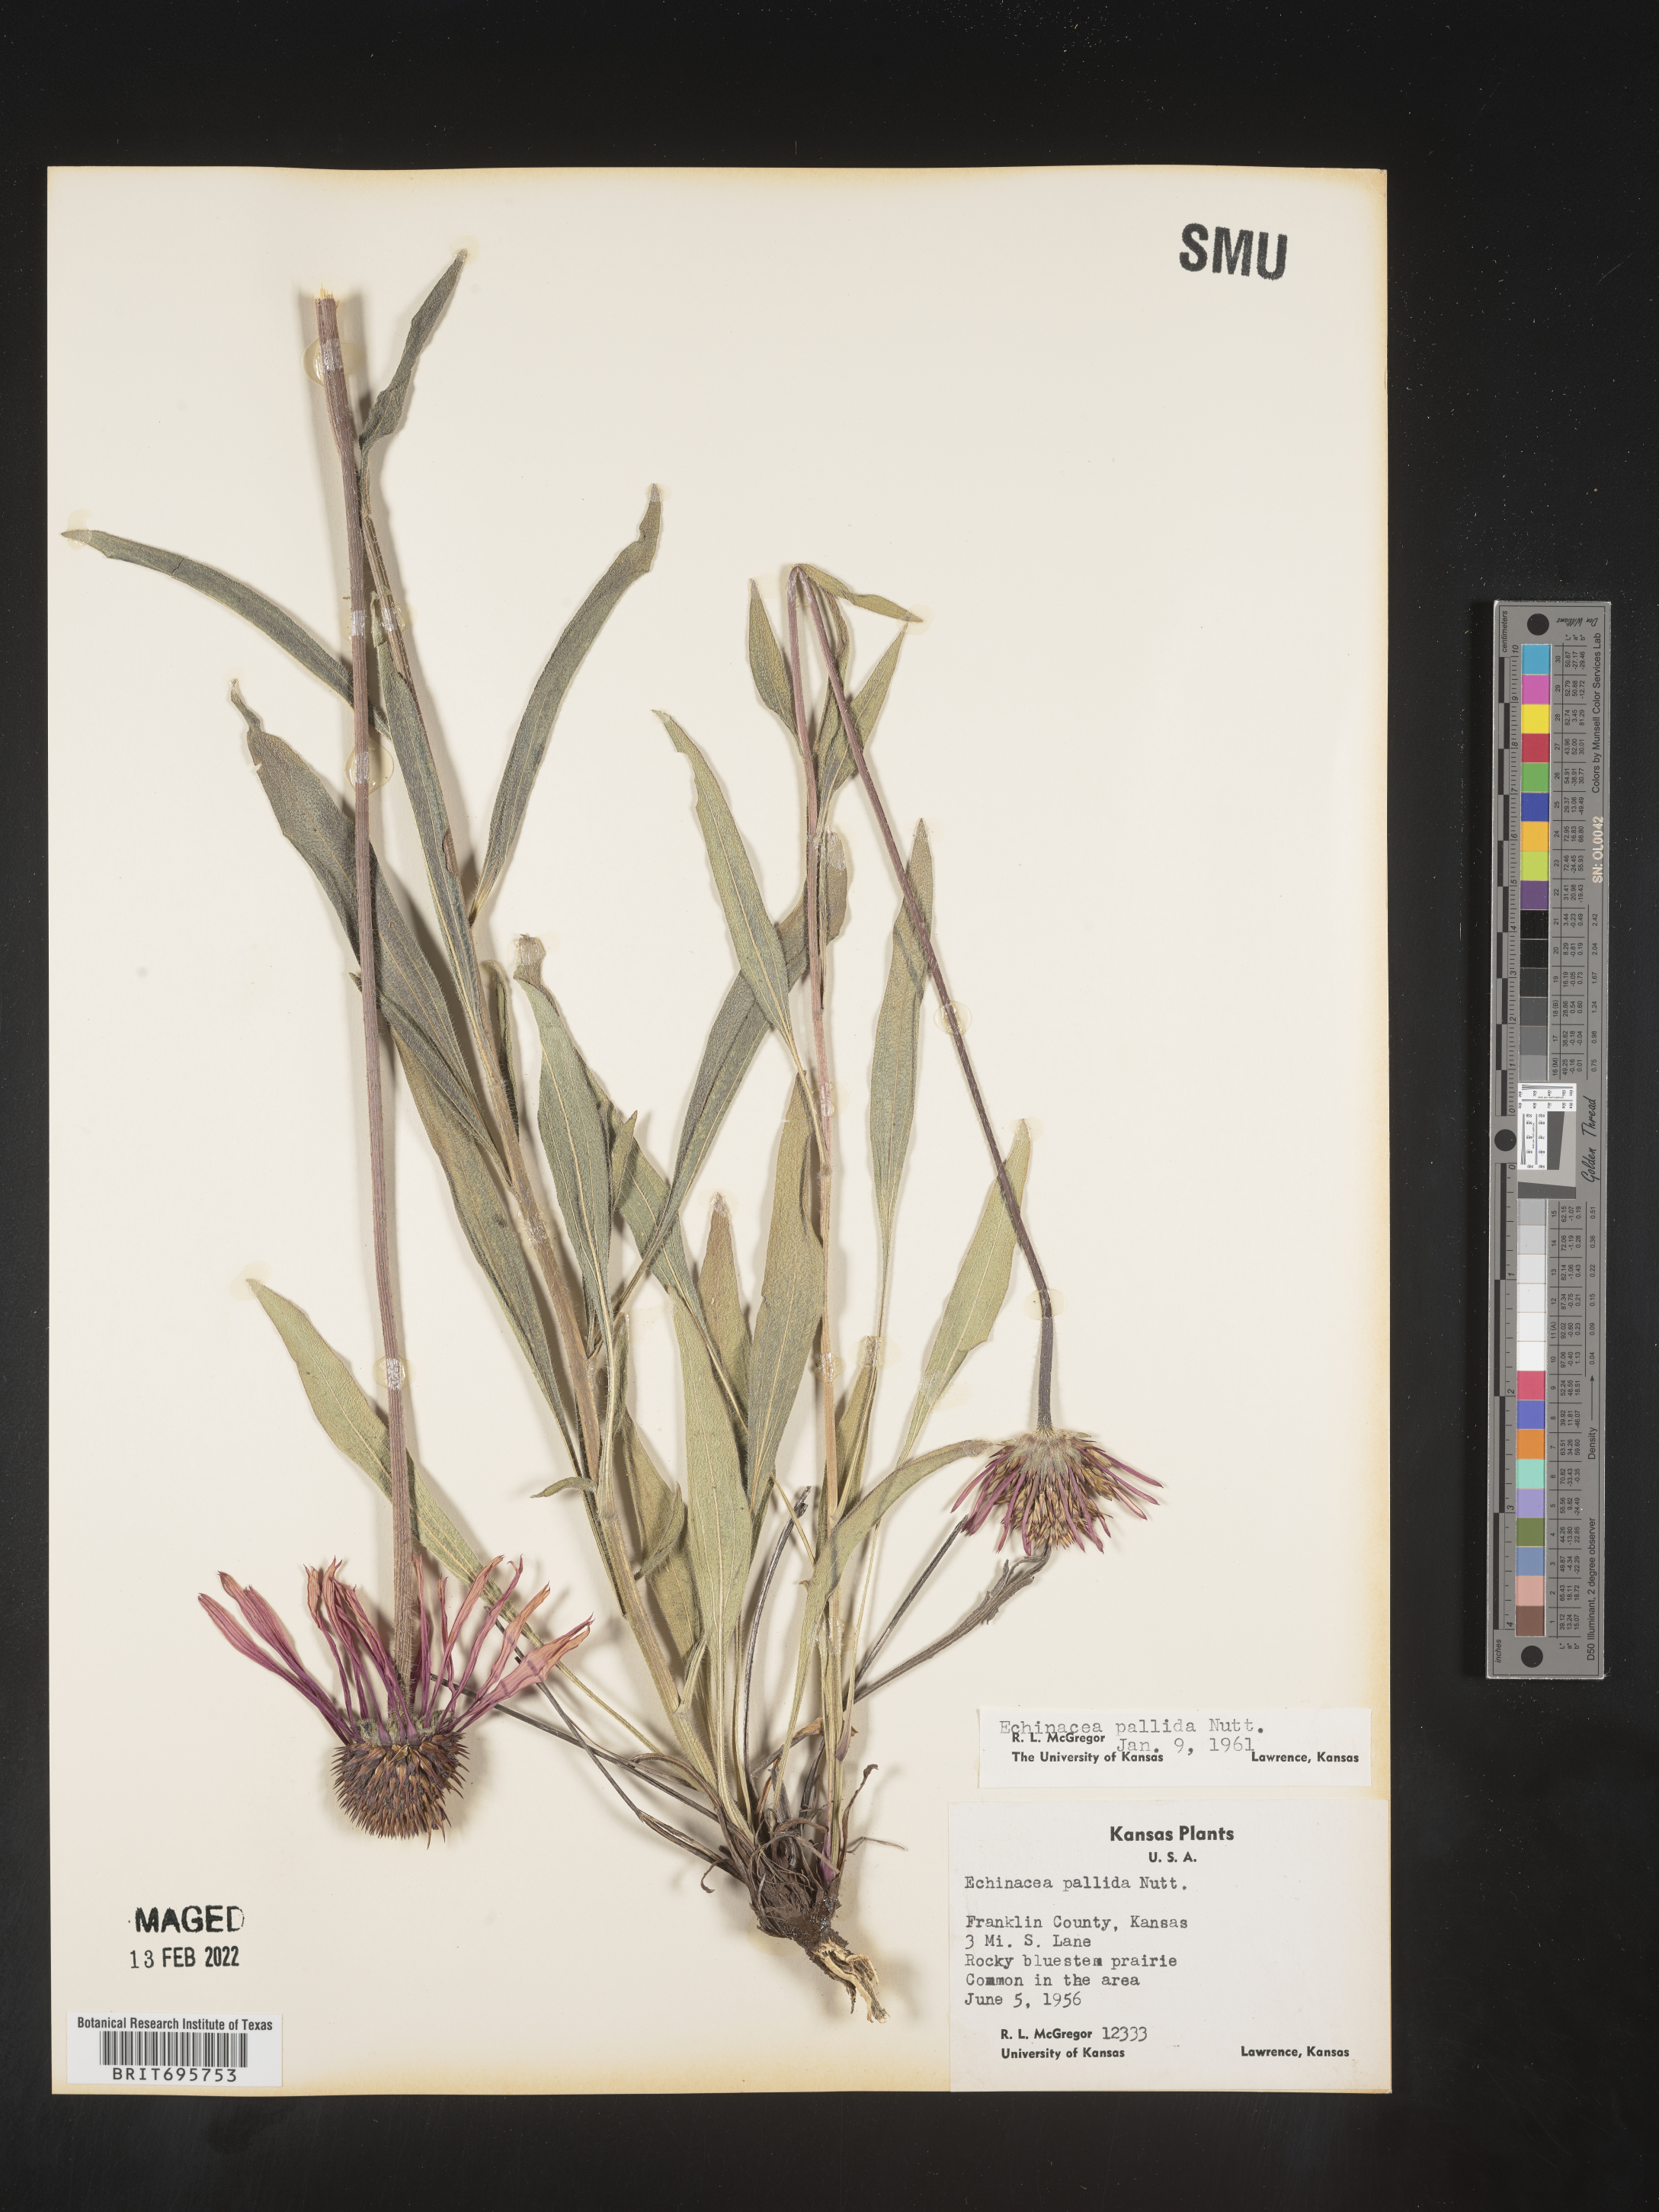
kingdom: Plantae
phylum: Tracheophyta
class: Magnoliopsida
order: Asterales
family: Asteraceae
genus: Echinacea
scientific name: Echinacea pallida
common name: Pale echinacea
